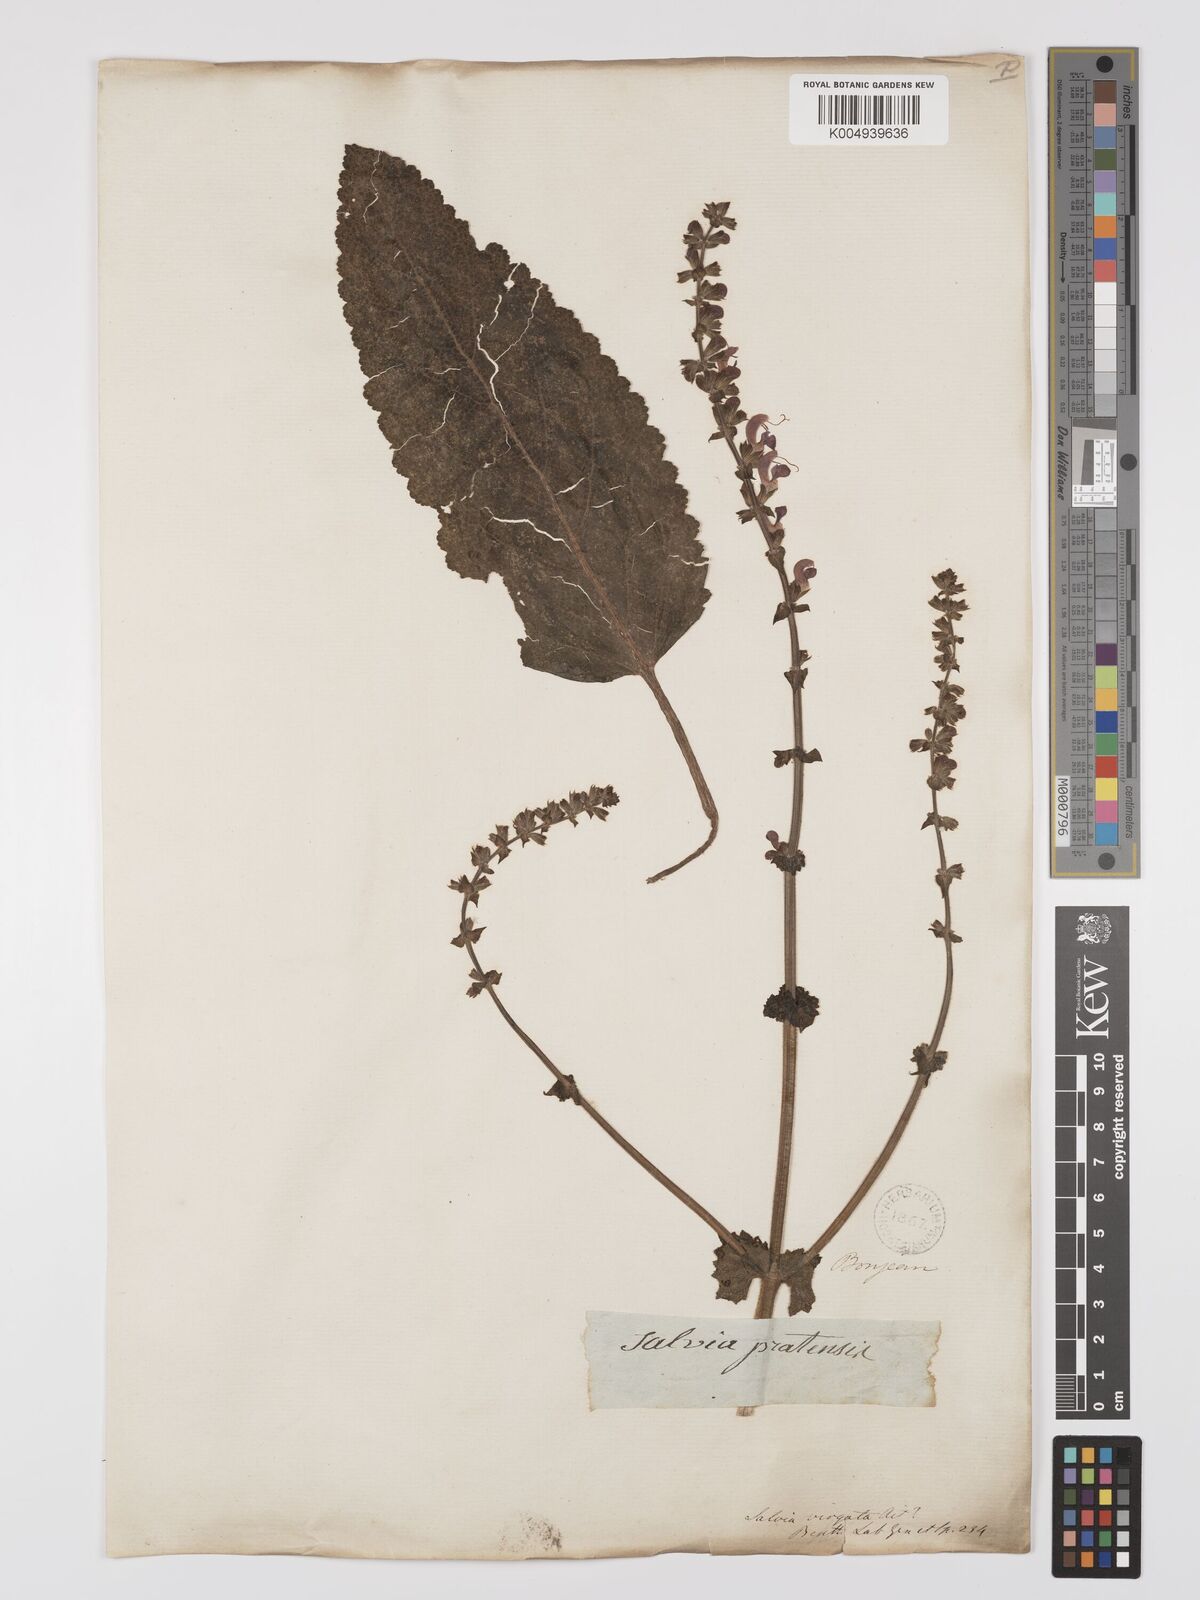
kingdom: Plantae
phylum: Tracheophyta
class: Magnoliopsida
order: Lamiales
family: Lamiaceae
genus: Salvia
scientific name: Salvia
